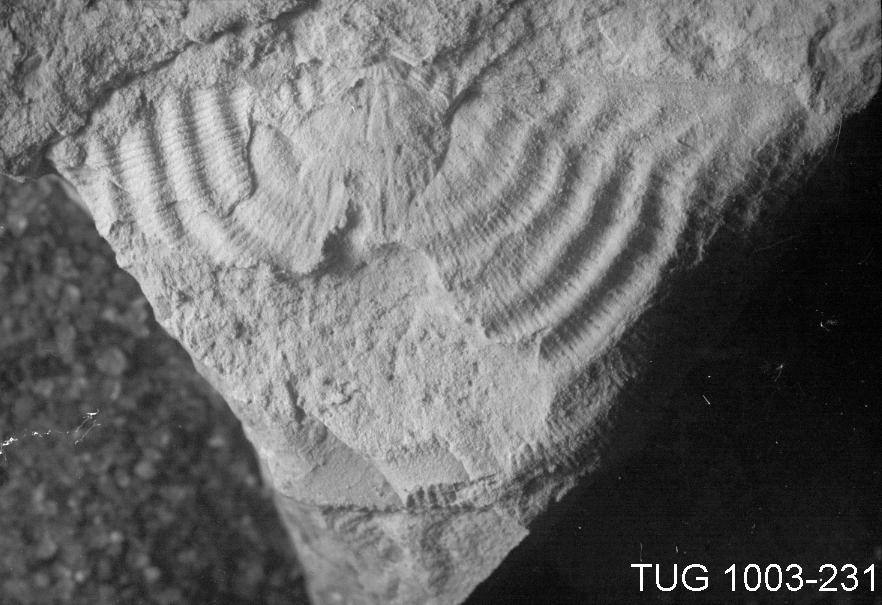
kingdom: Animalia
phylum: Brachiopoda
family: Strophomenidae
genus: Leptaena
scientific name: Leptaena
